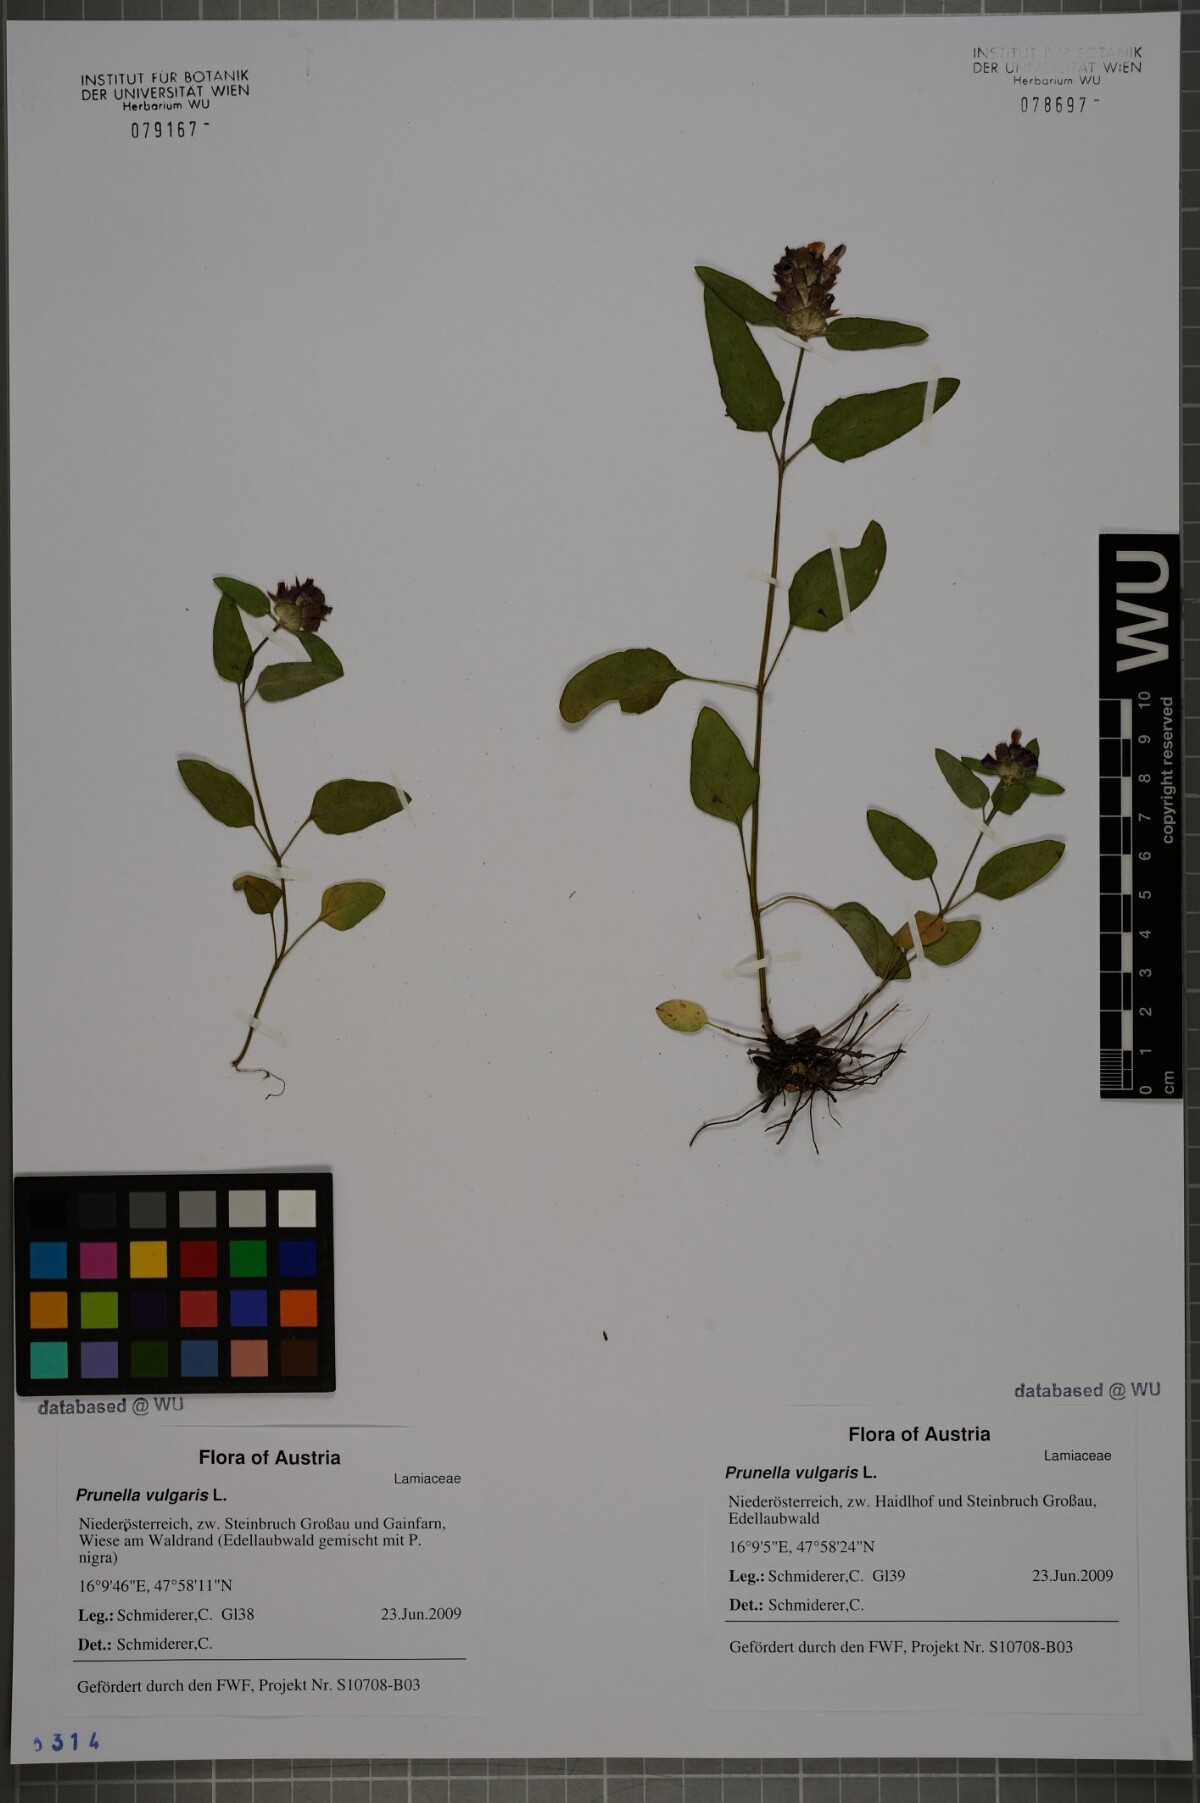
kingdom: Plantae
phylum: Tracheophyta
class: Magnoliopsida
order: Lamiales
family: Lamiaceae
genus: Prunella
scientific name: Prunella vulgaris
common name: Heal-all
